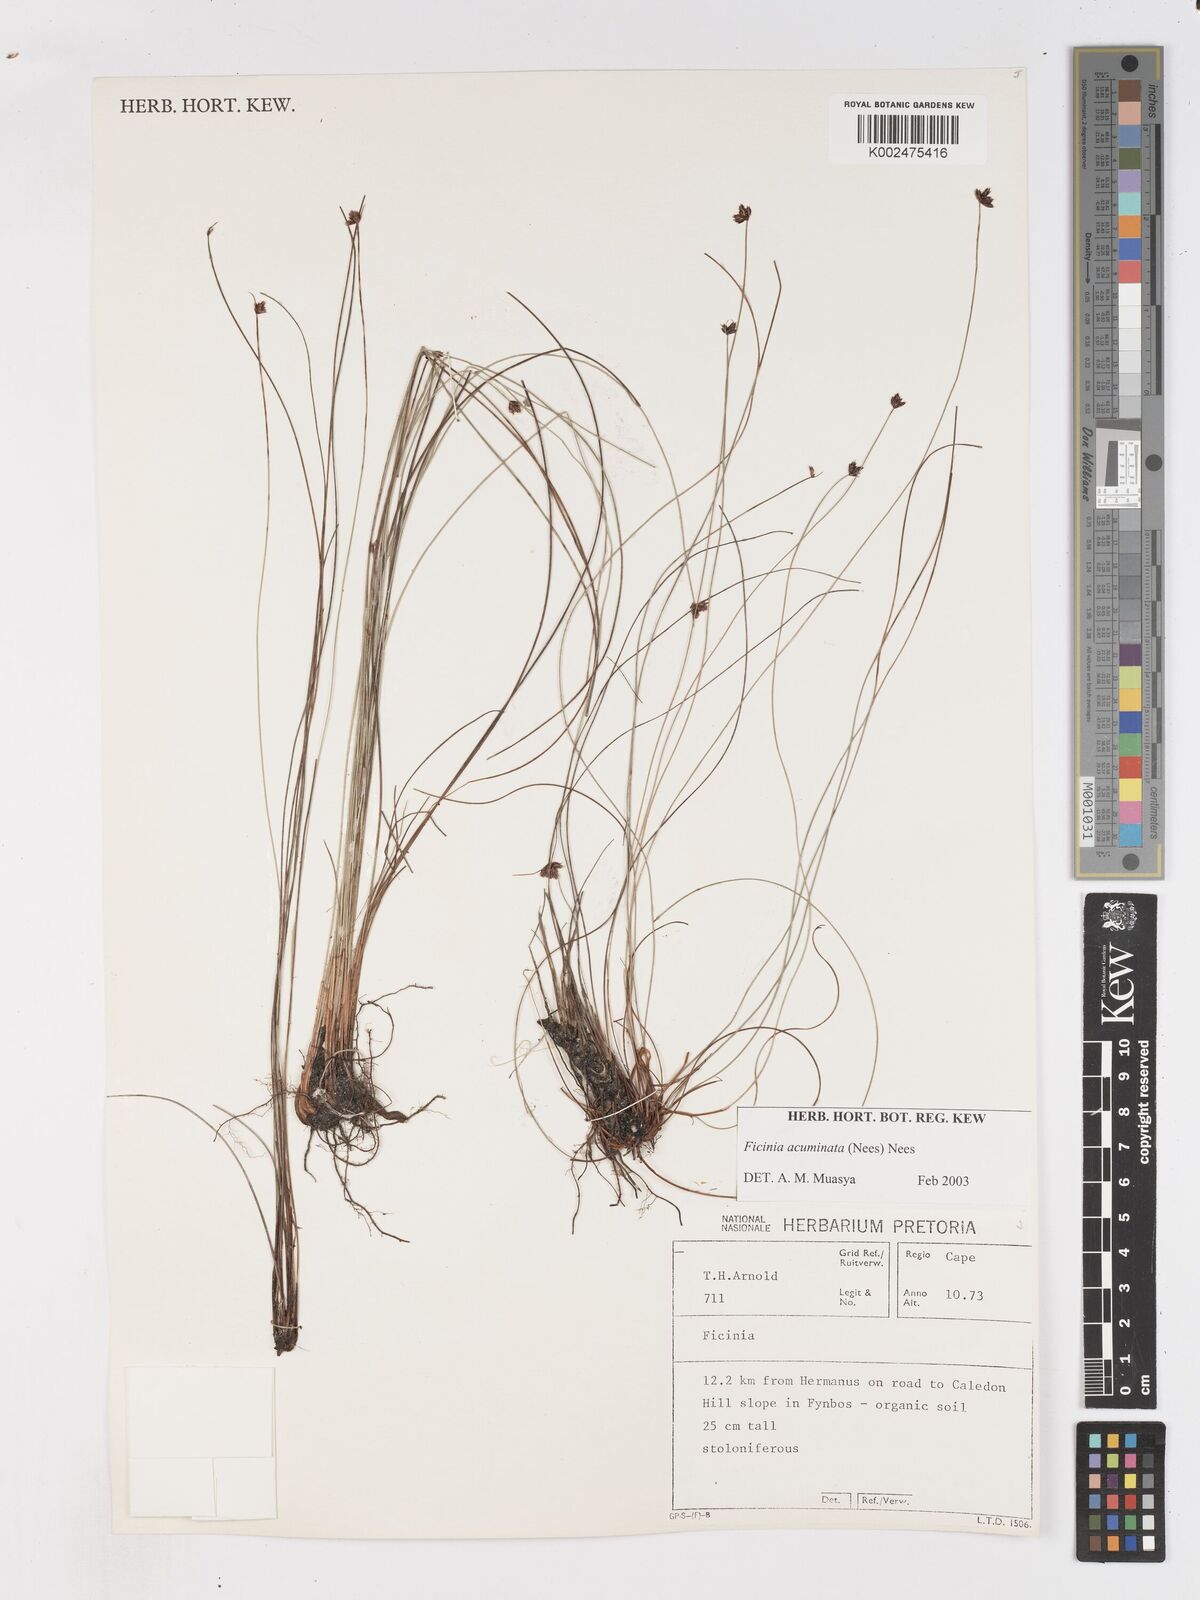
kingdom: Plantae
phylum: Tracheophyta
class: Liliopsida
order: Poales
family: Cyperaceae
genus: Ficinia
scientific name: Ficinia acuminata
